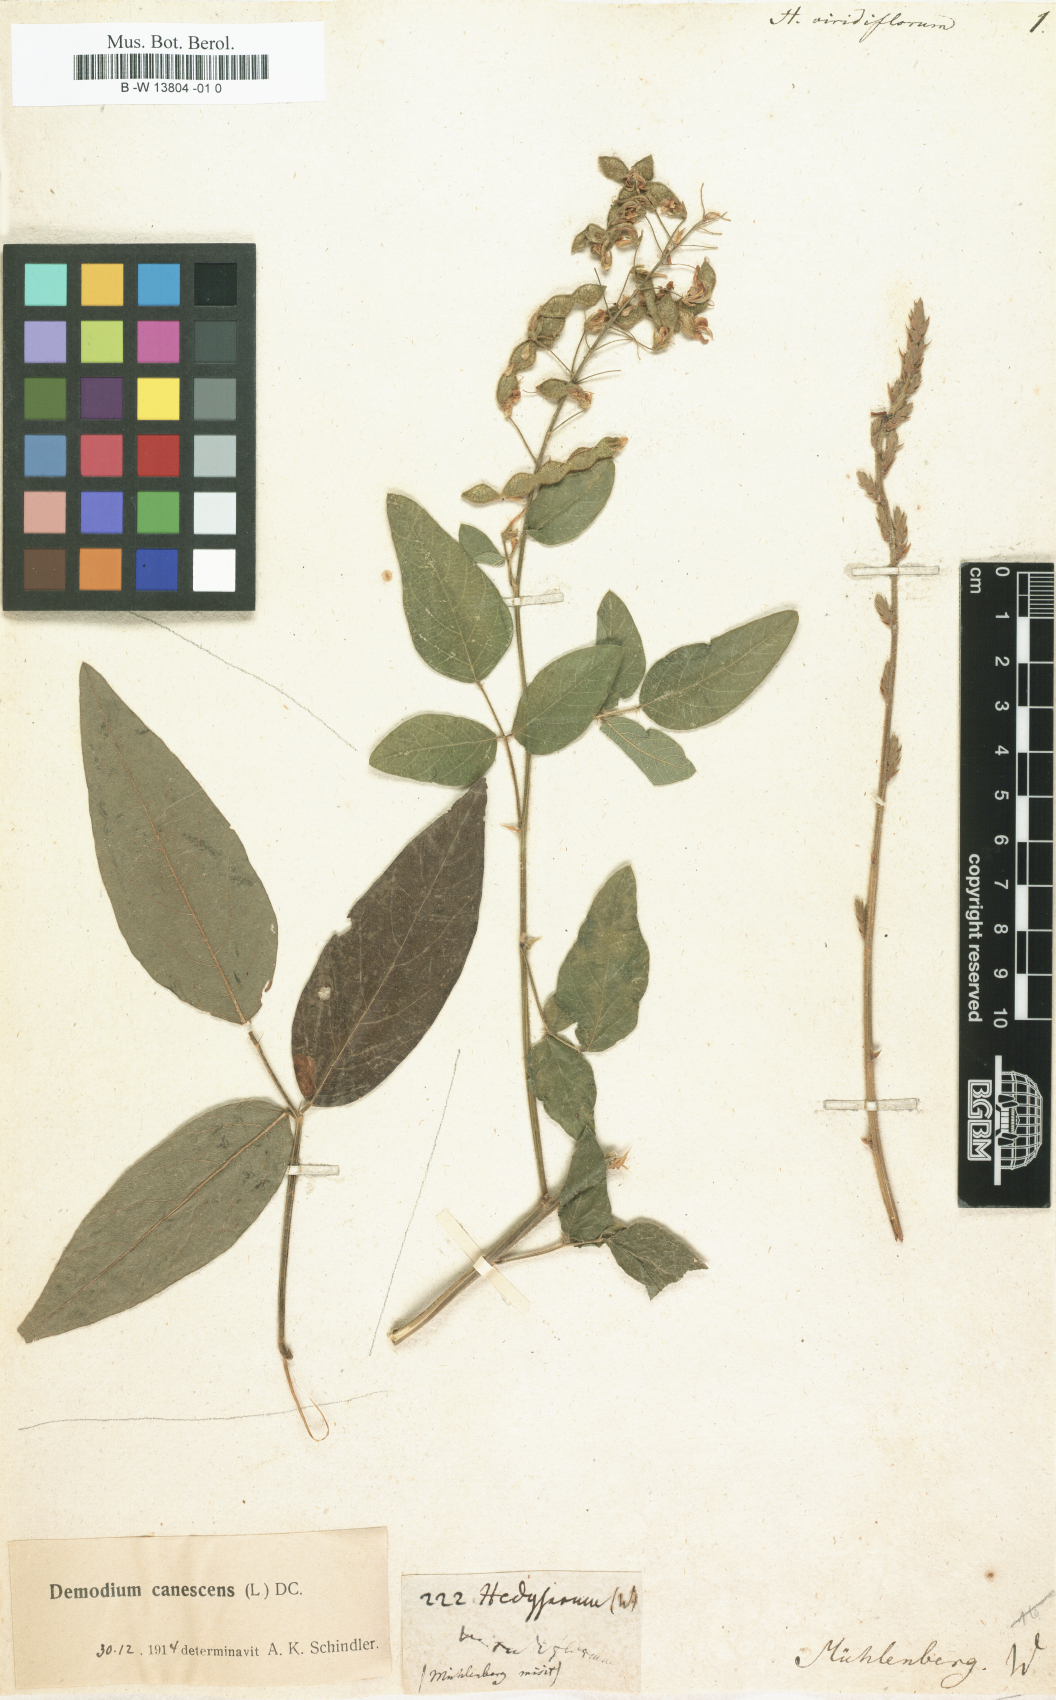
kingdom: Plantae
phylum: Tracheophyta
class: Magnoliopsida
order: Fabales
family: Fabaceae
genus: Desmodium
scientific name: Desmodium viridiflorum
